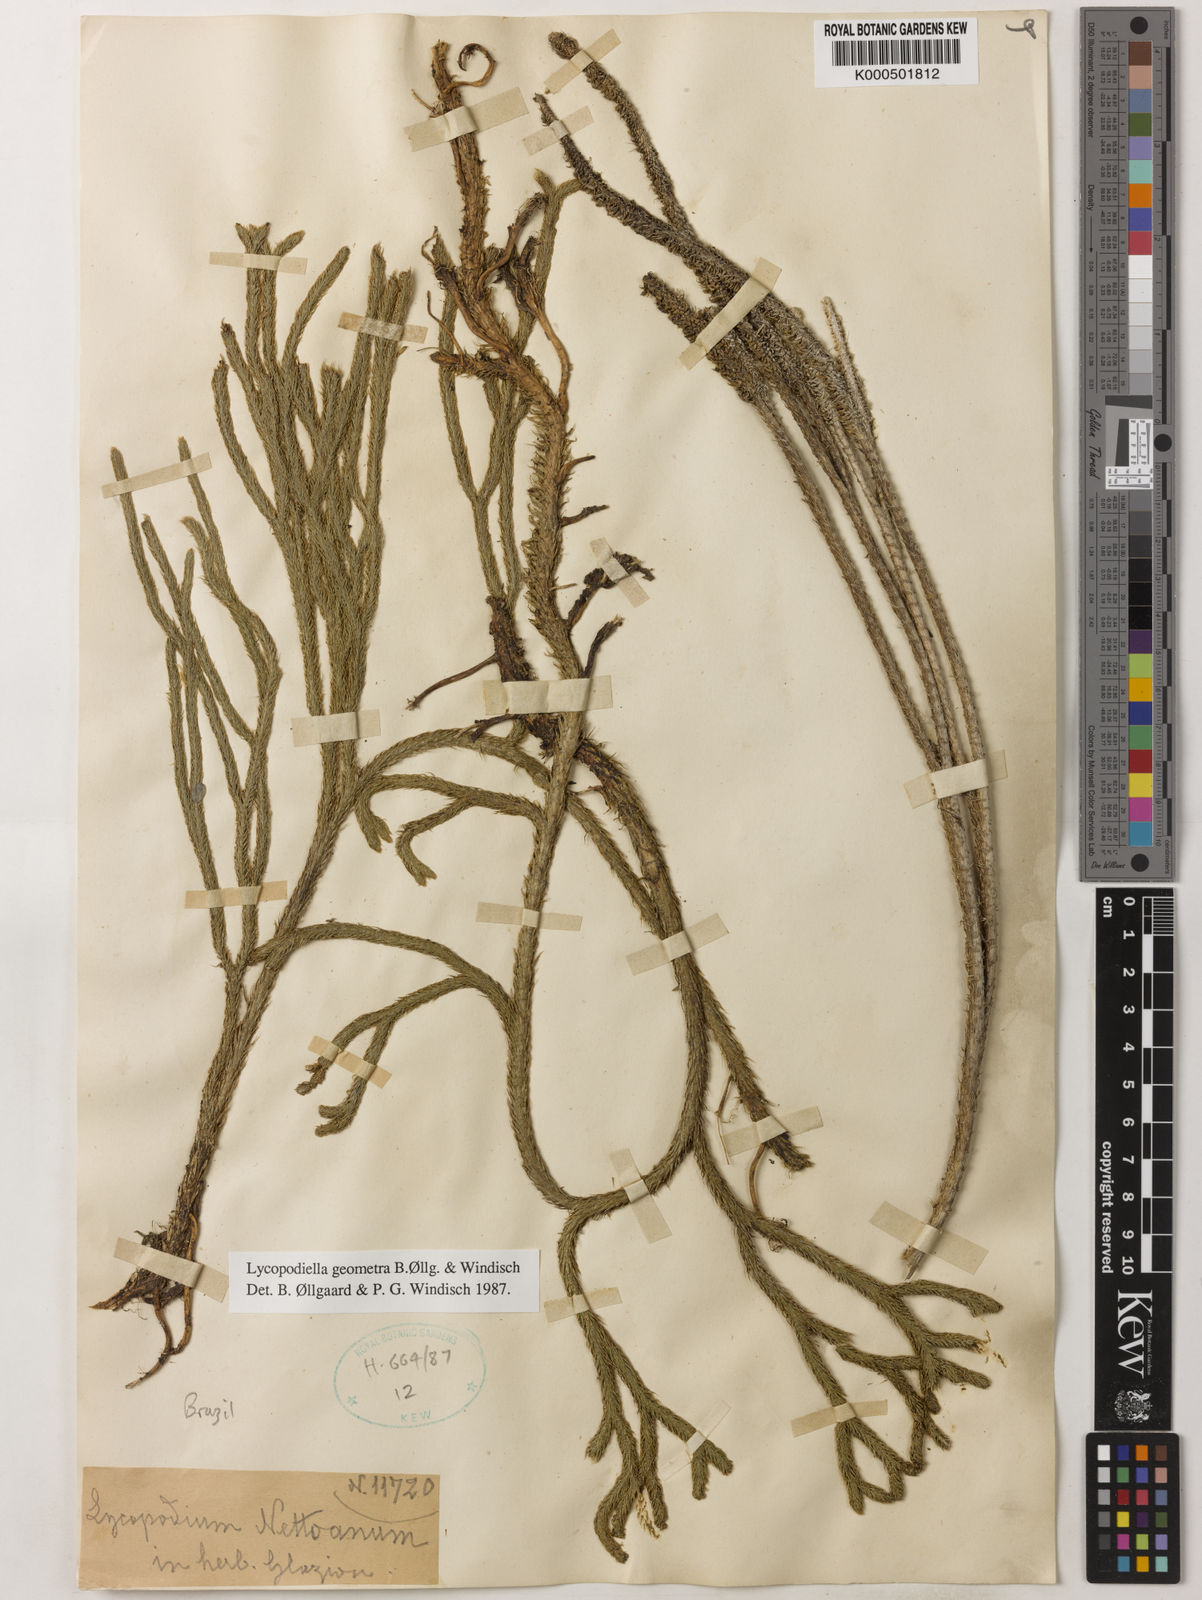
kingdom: Plantae
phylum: Tracheophyta
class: Lycopodiopsida
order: Lycopodiales
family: Lycopodiaceae
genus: Lycopodiella
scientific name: Lycopodiella
